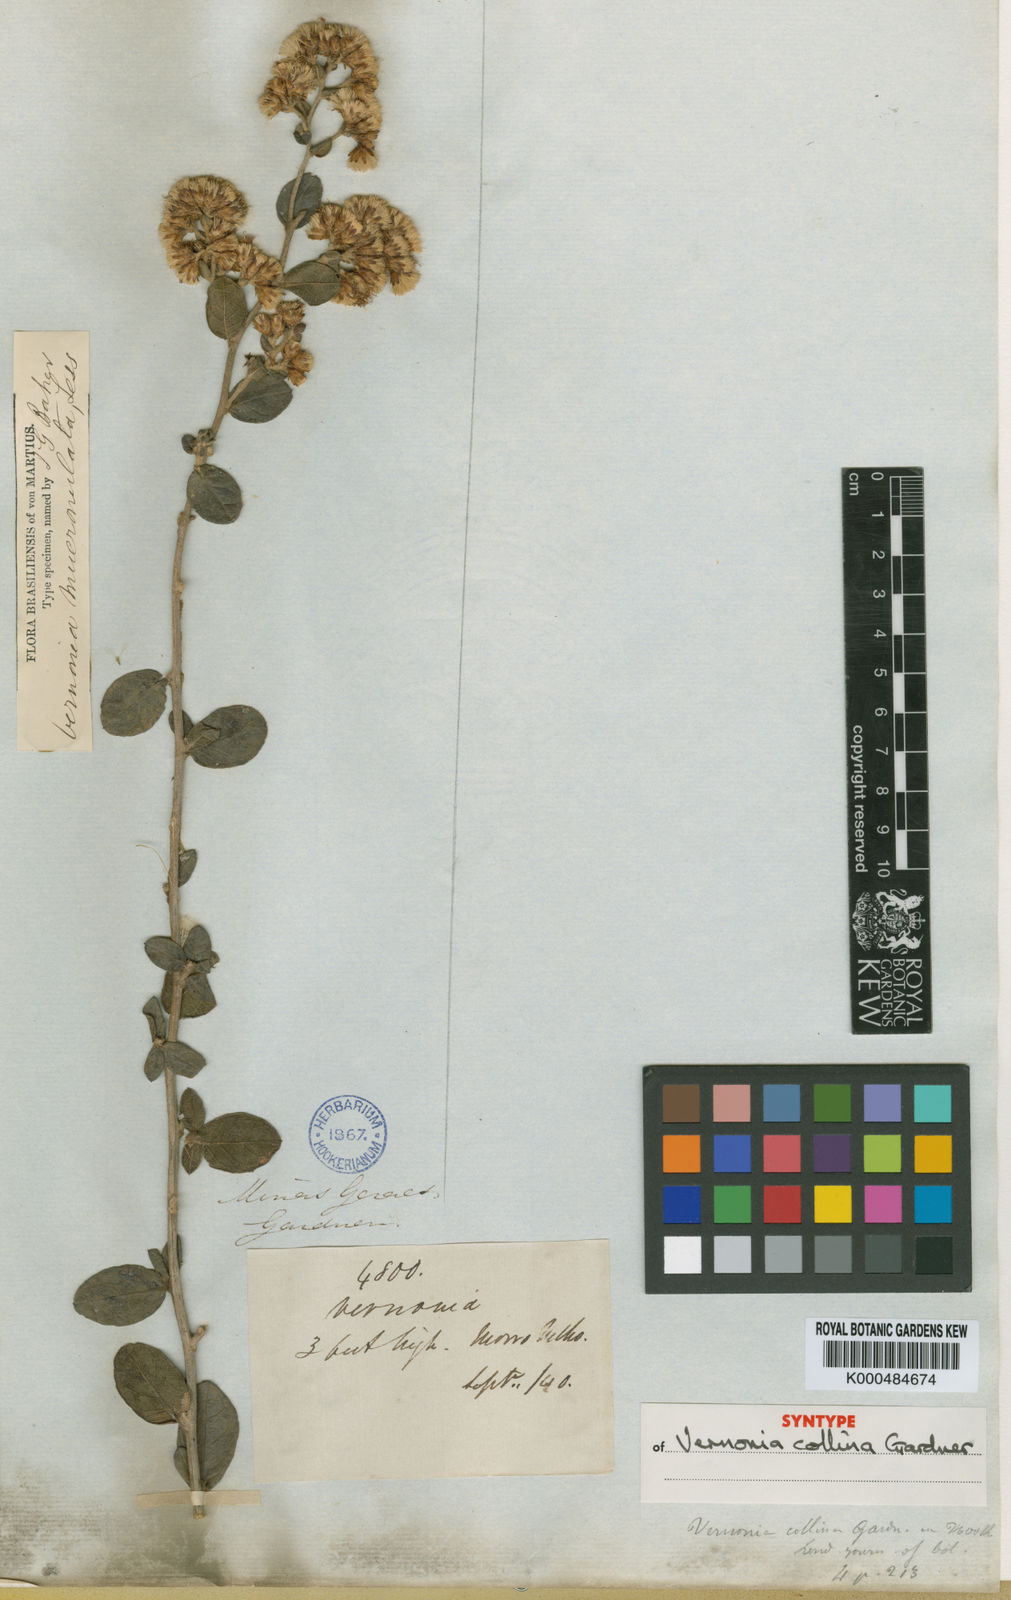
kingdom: Plantae
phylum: Tracheophyta
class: Magnoliopsida
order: Asterales
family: Asteraceae
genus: Vernonanthura
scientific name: Vernonanthura mucronulata
